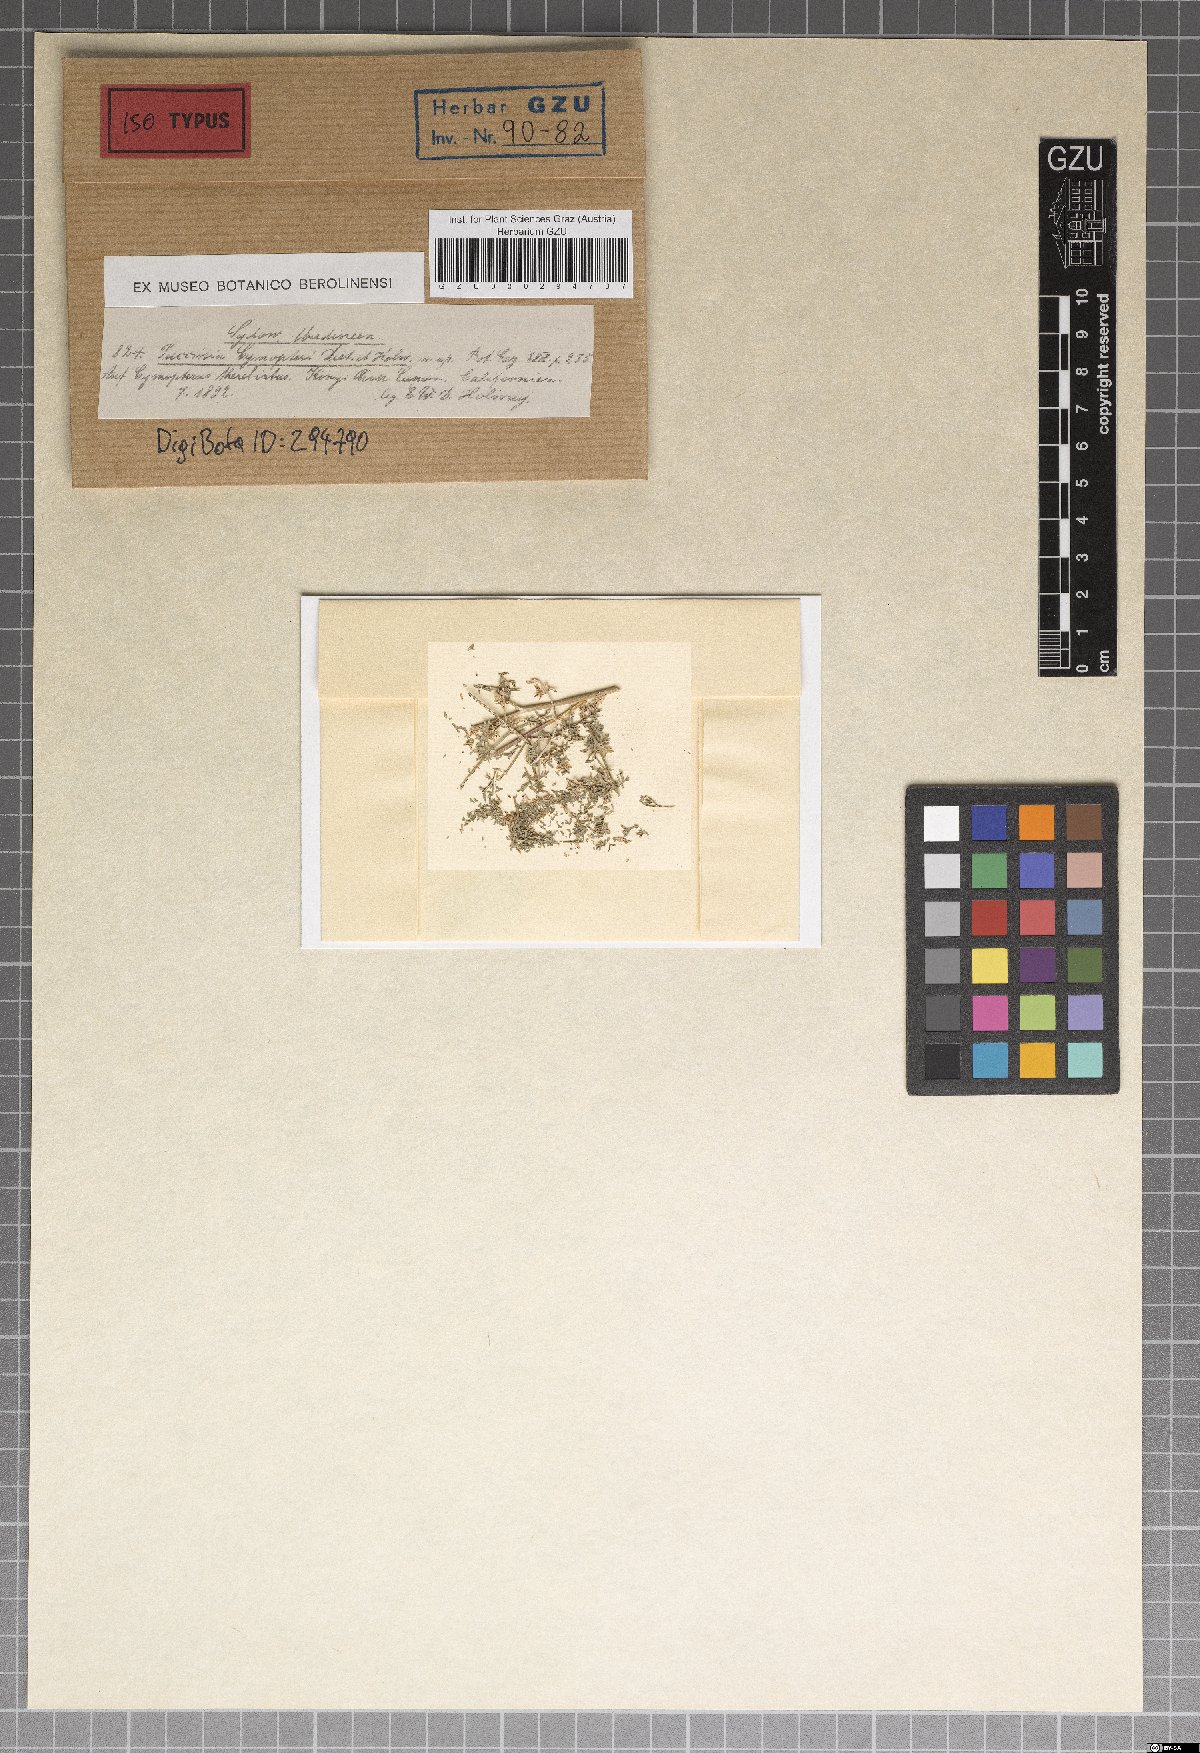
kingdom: Fungi
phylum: Basidiomycota
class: Pucciniomycetes
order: Pucciniales
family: Pucciniaceae
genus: Puccinia
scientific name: Puccinia cymopteri
